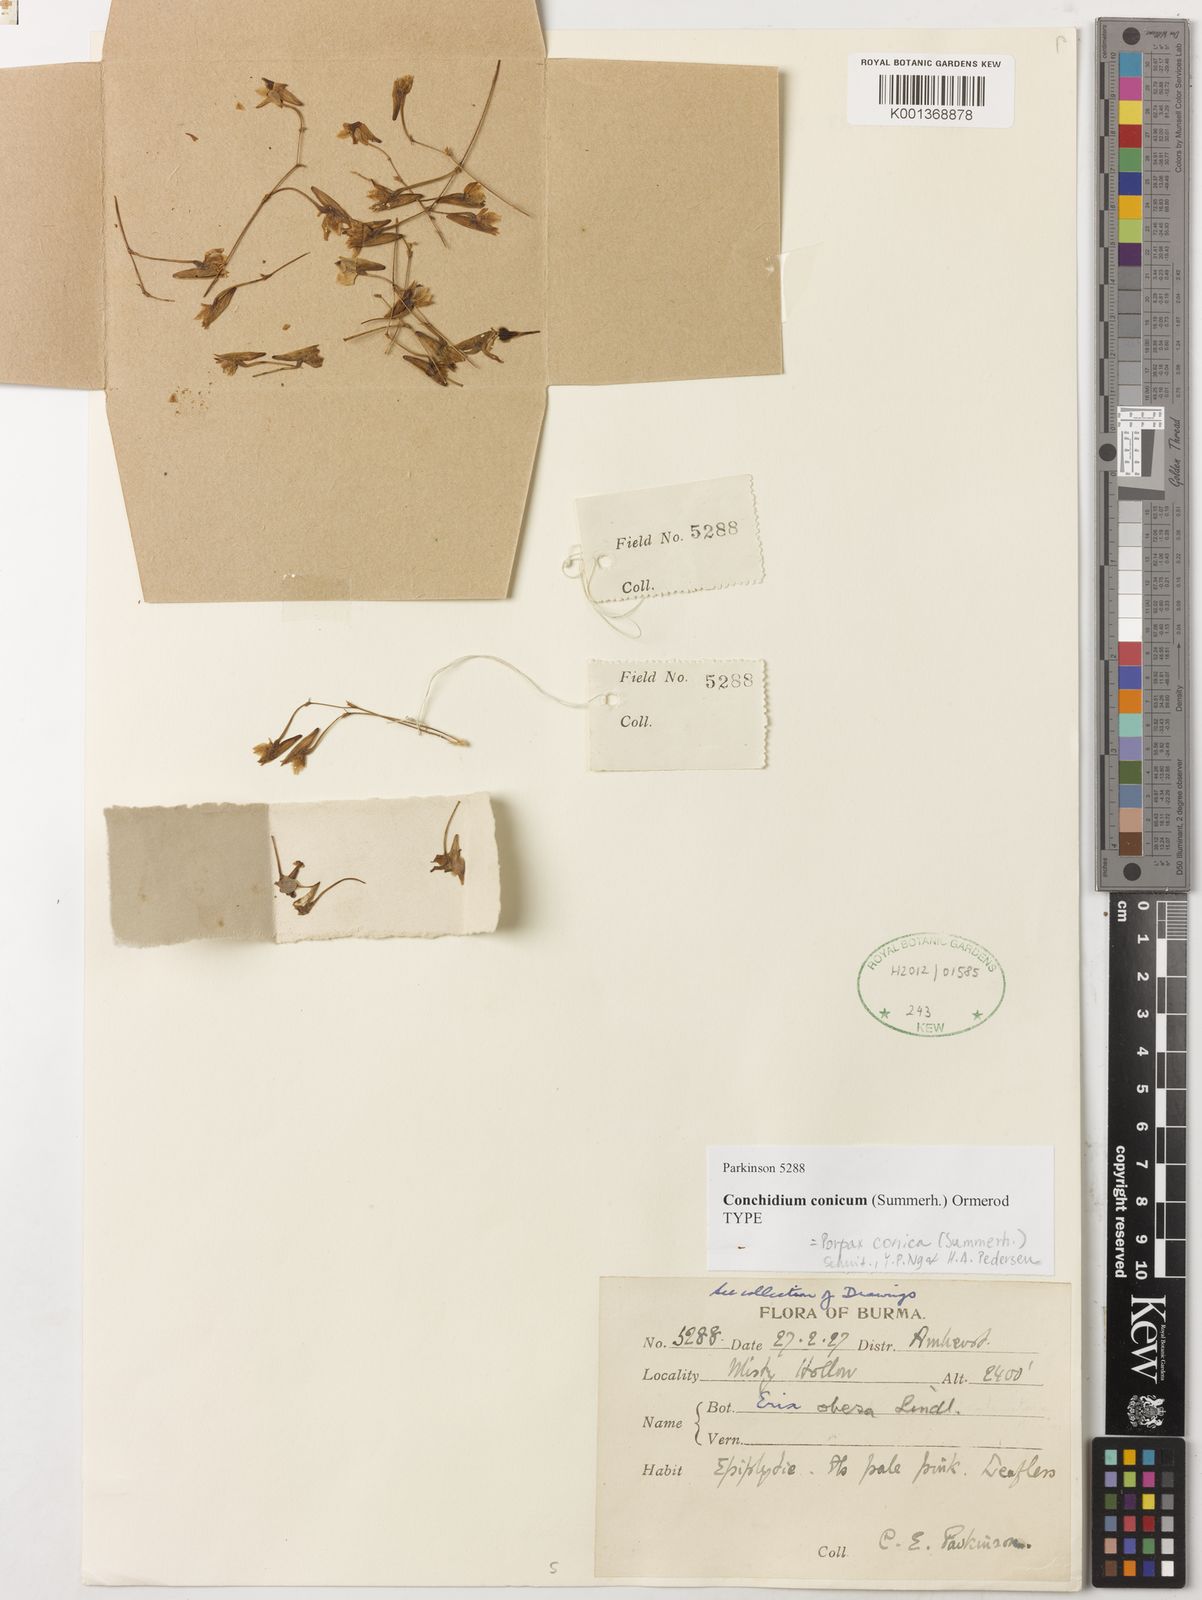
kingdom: Plantae
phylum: Tracheophyta
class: Liliopsida
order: Asparagales
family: Orchidaceae
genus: Porpax
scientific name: Porpax conica
